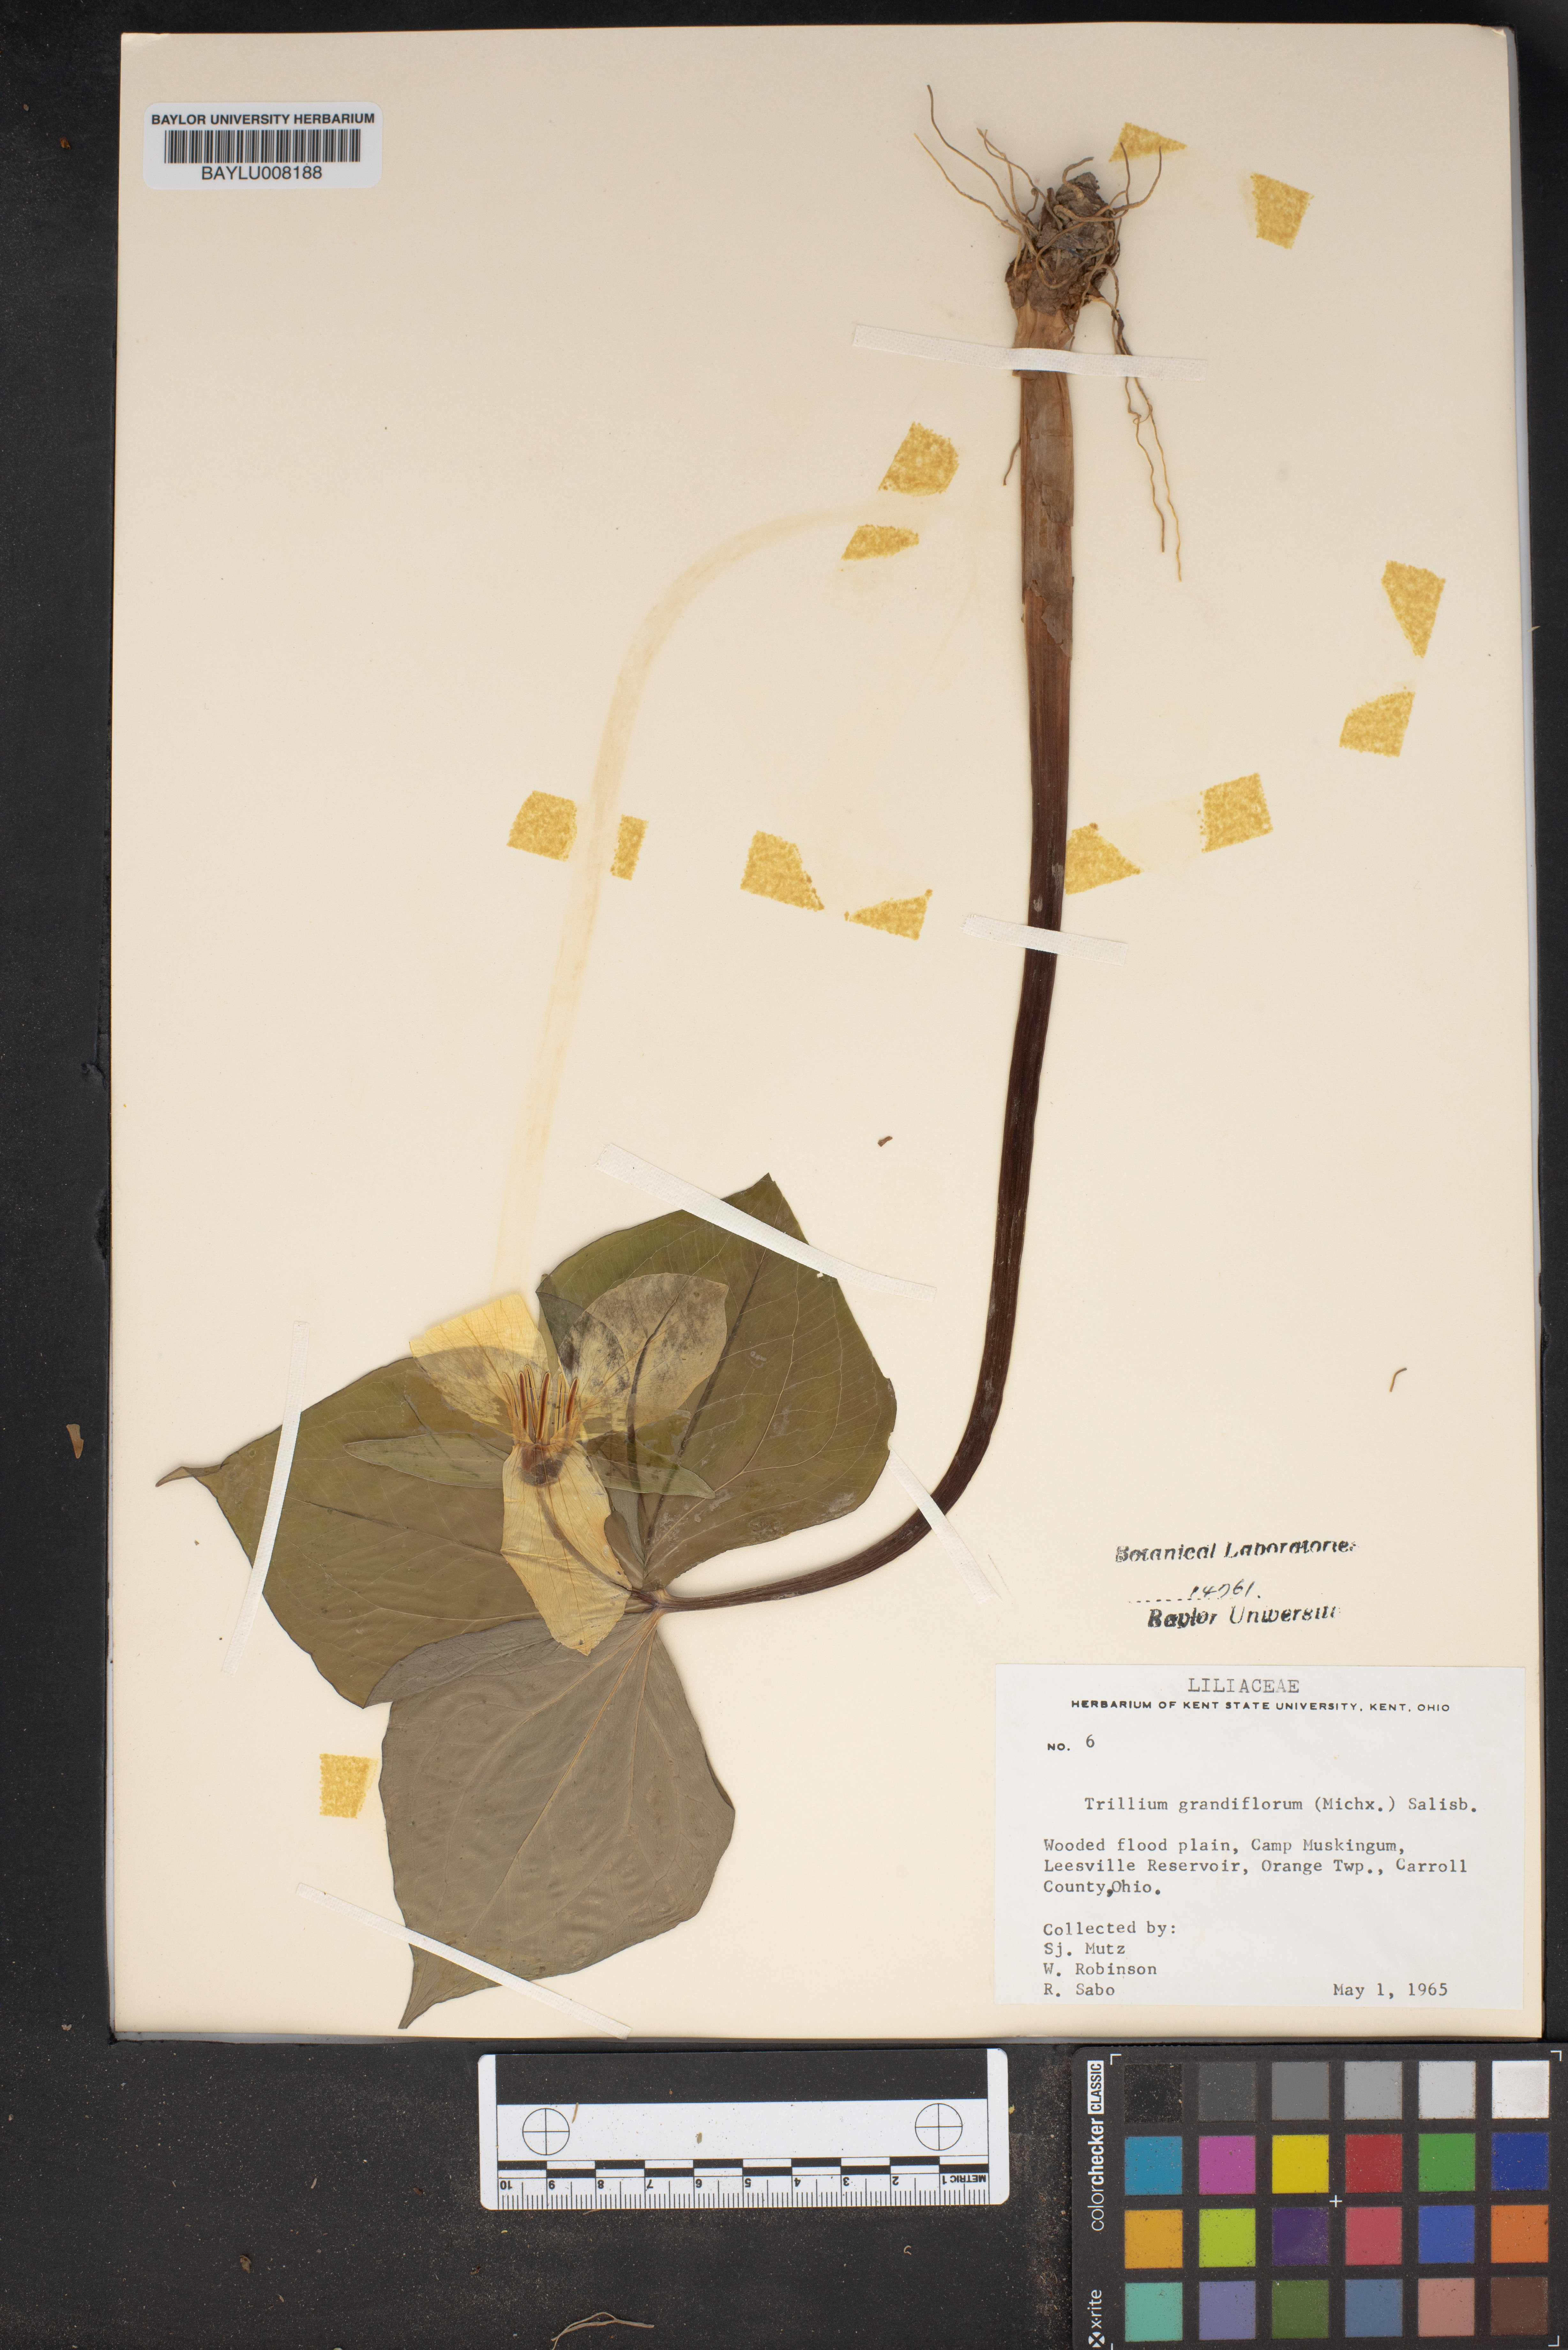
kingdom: Plantae
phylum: Tracheophyta
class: Liliopsida
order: Liliales
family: Melanthiaceae
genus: Trillium
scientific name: Trillium grandiflorum
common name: Great white trillium
